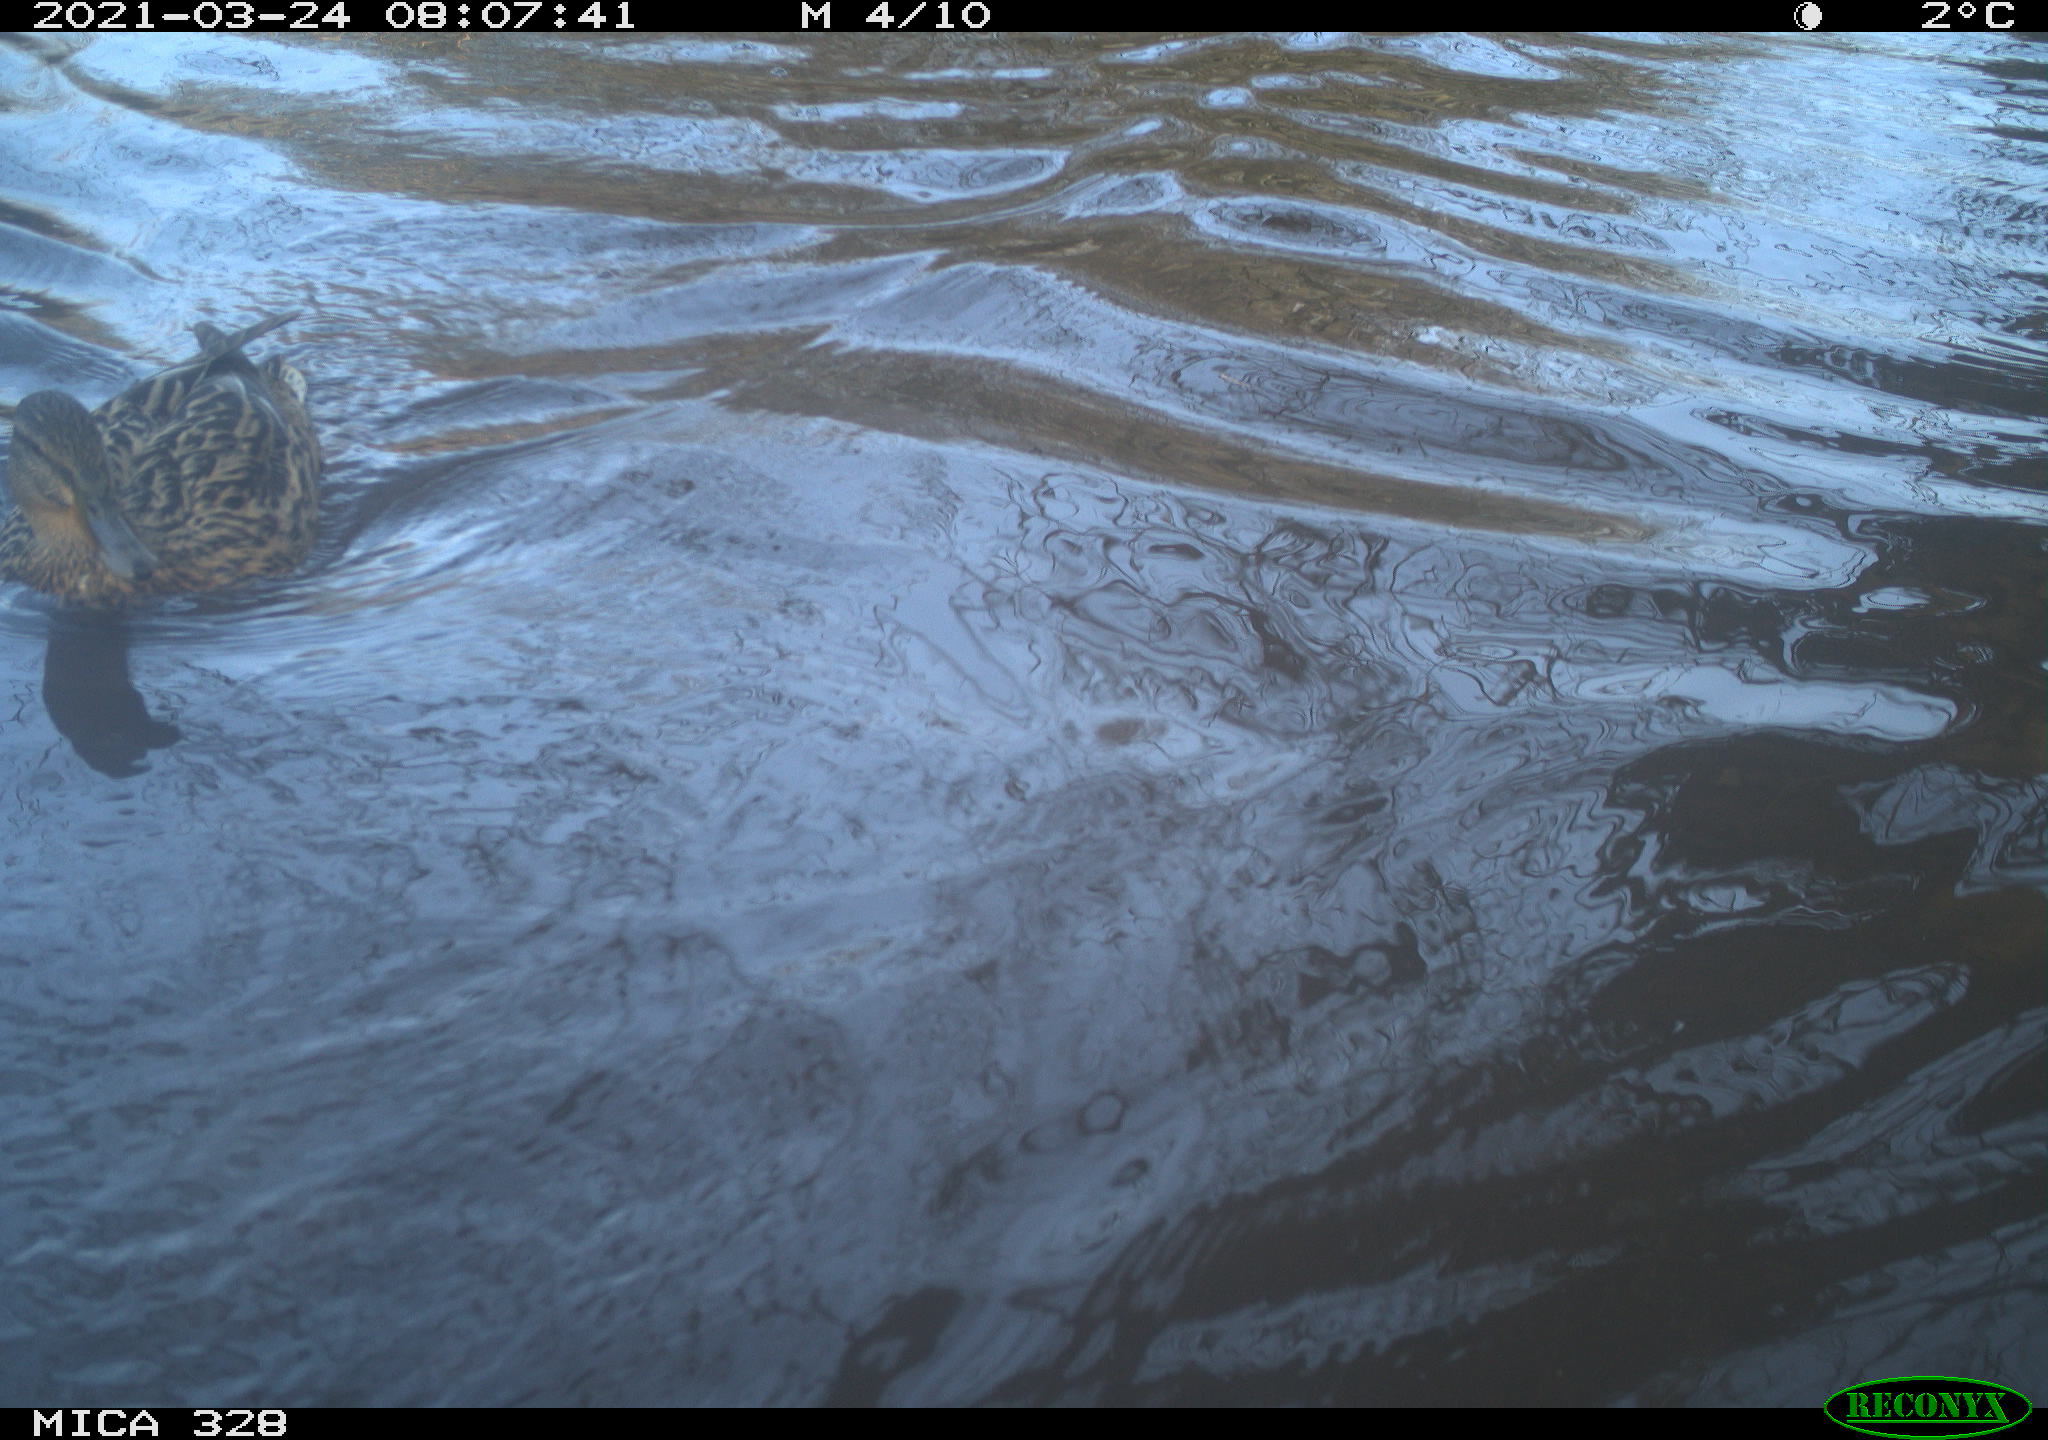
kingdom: Animalia
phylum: Chordata
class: Aves
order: Anseriformes
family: Anatidae
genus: Anas
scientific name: Anas platyrhynchos
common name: Mallard
